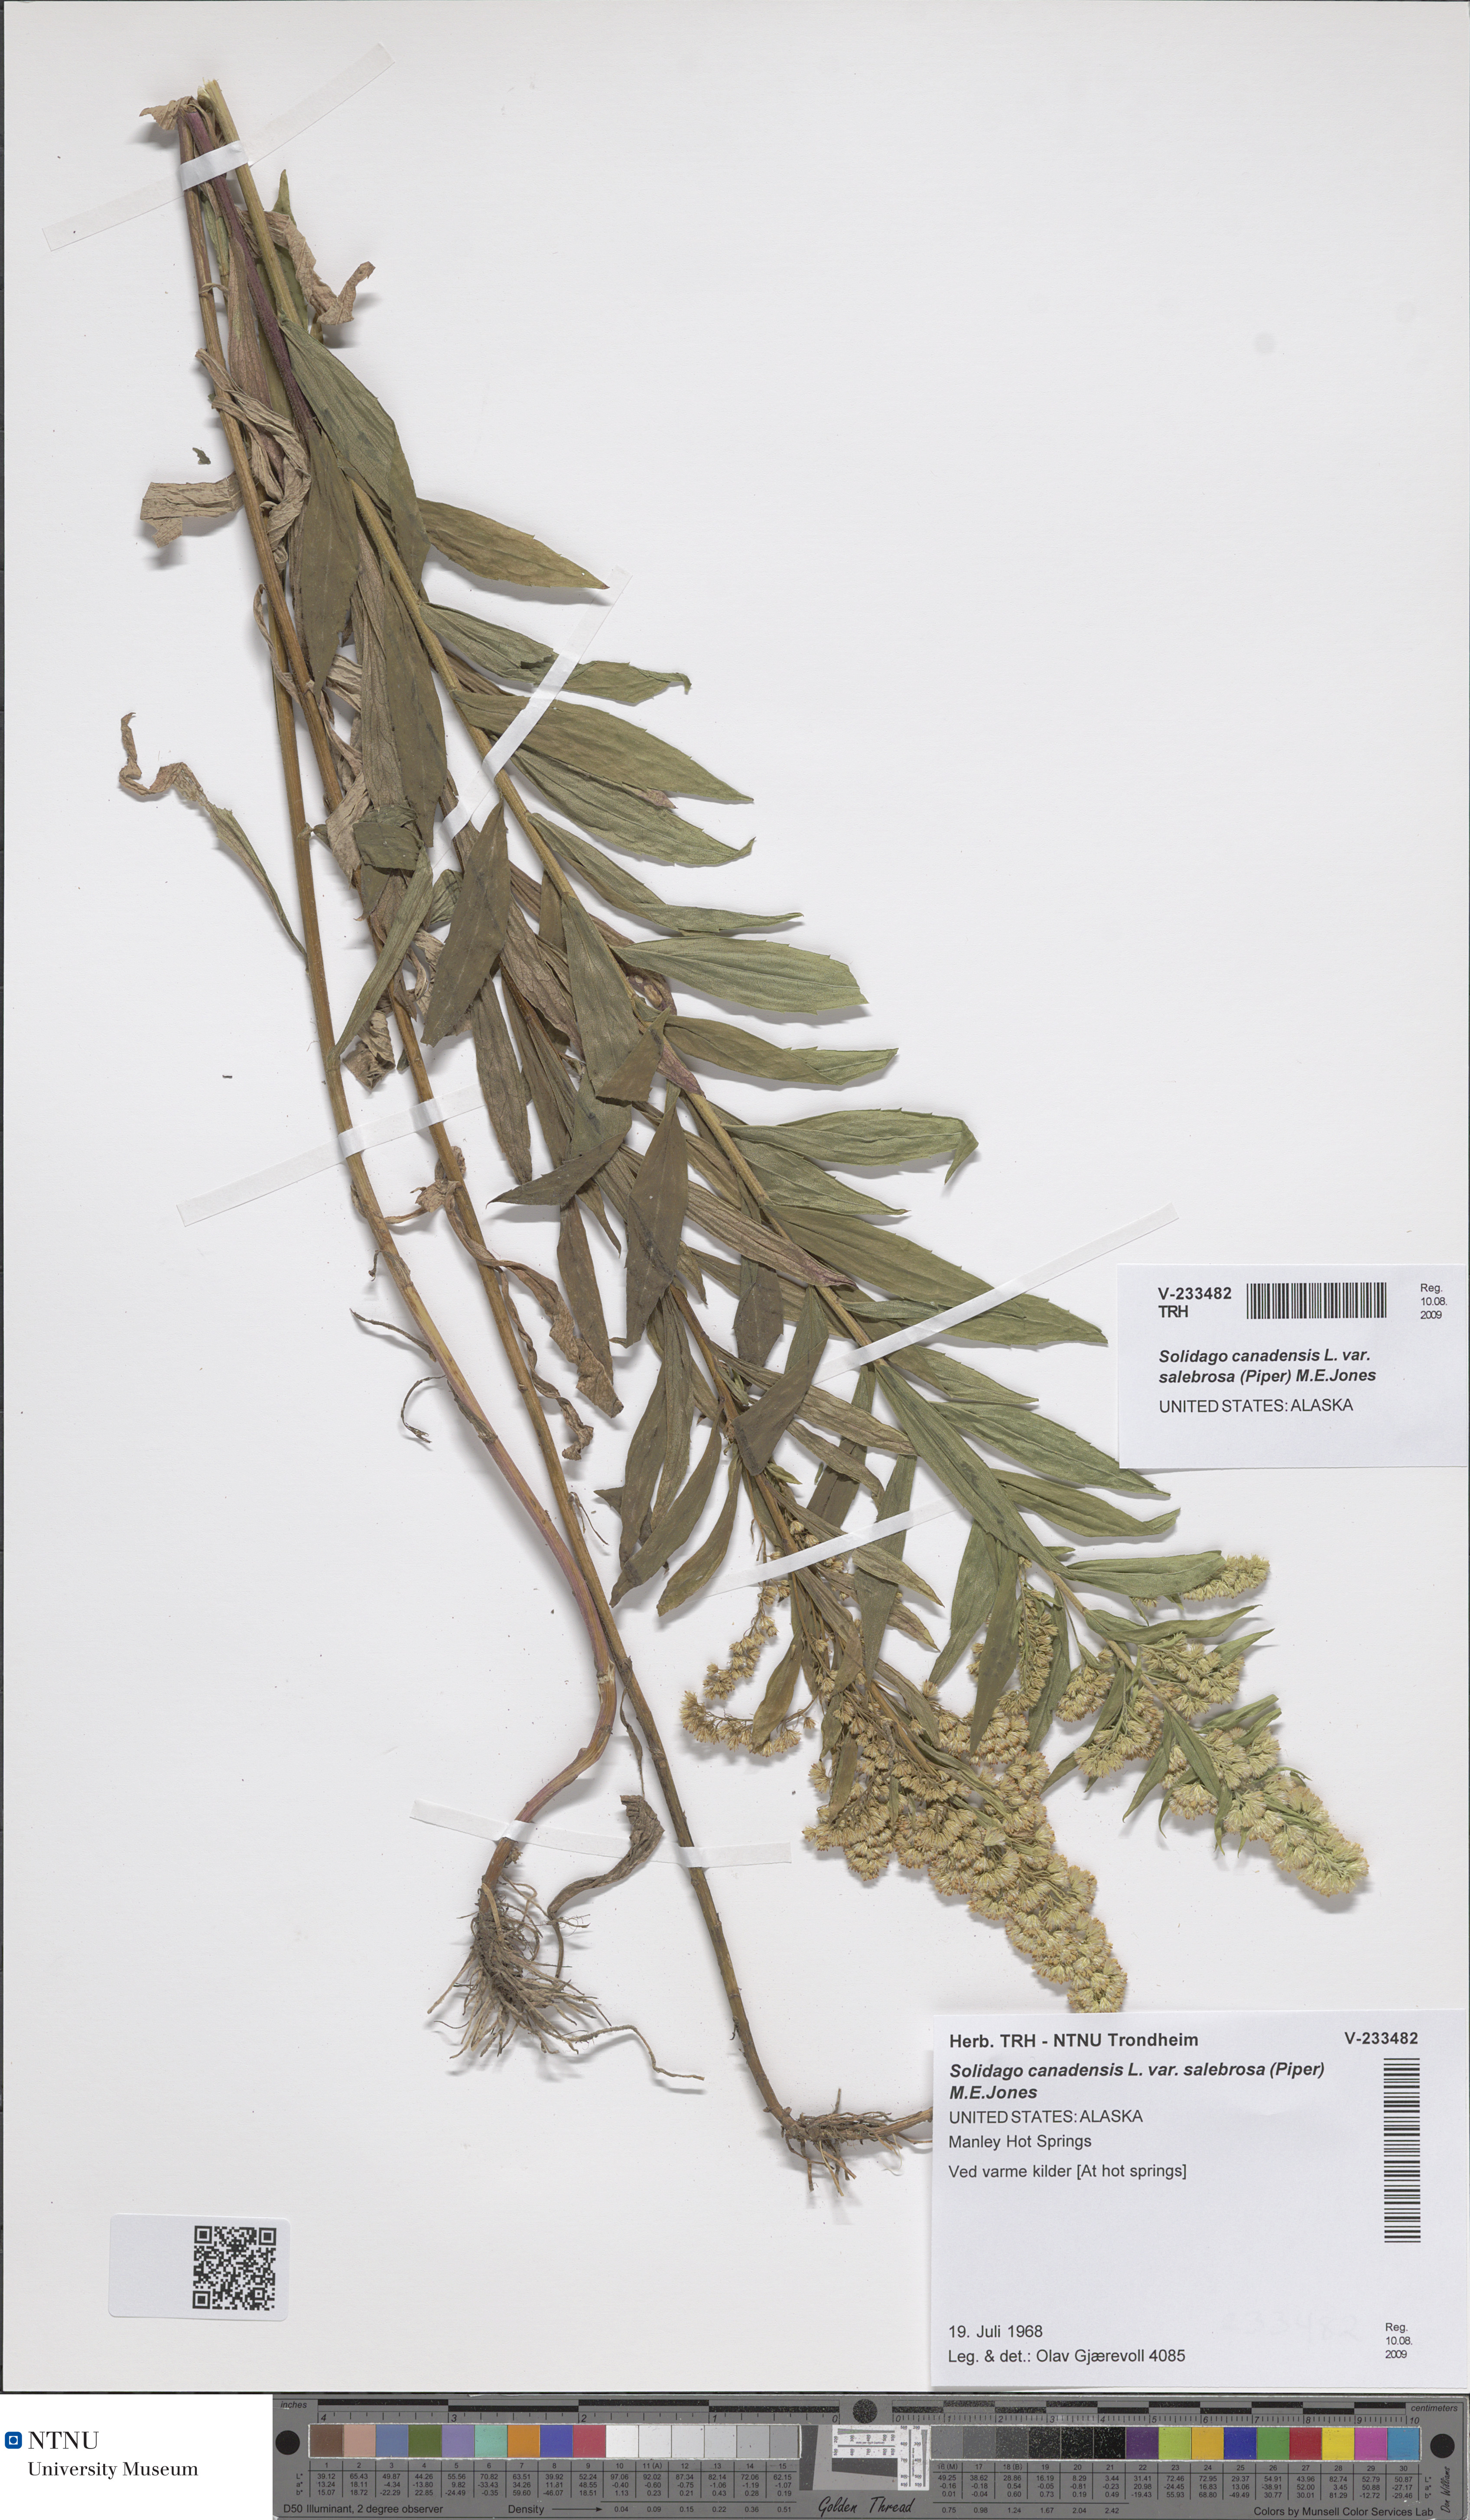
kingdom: Plantae
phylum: Tracheophyta
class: Magnoliopsida
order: Asterales
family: Asteraceae
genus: Solidago
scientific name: Solidago lepida
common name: Western canada goldenrod
